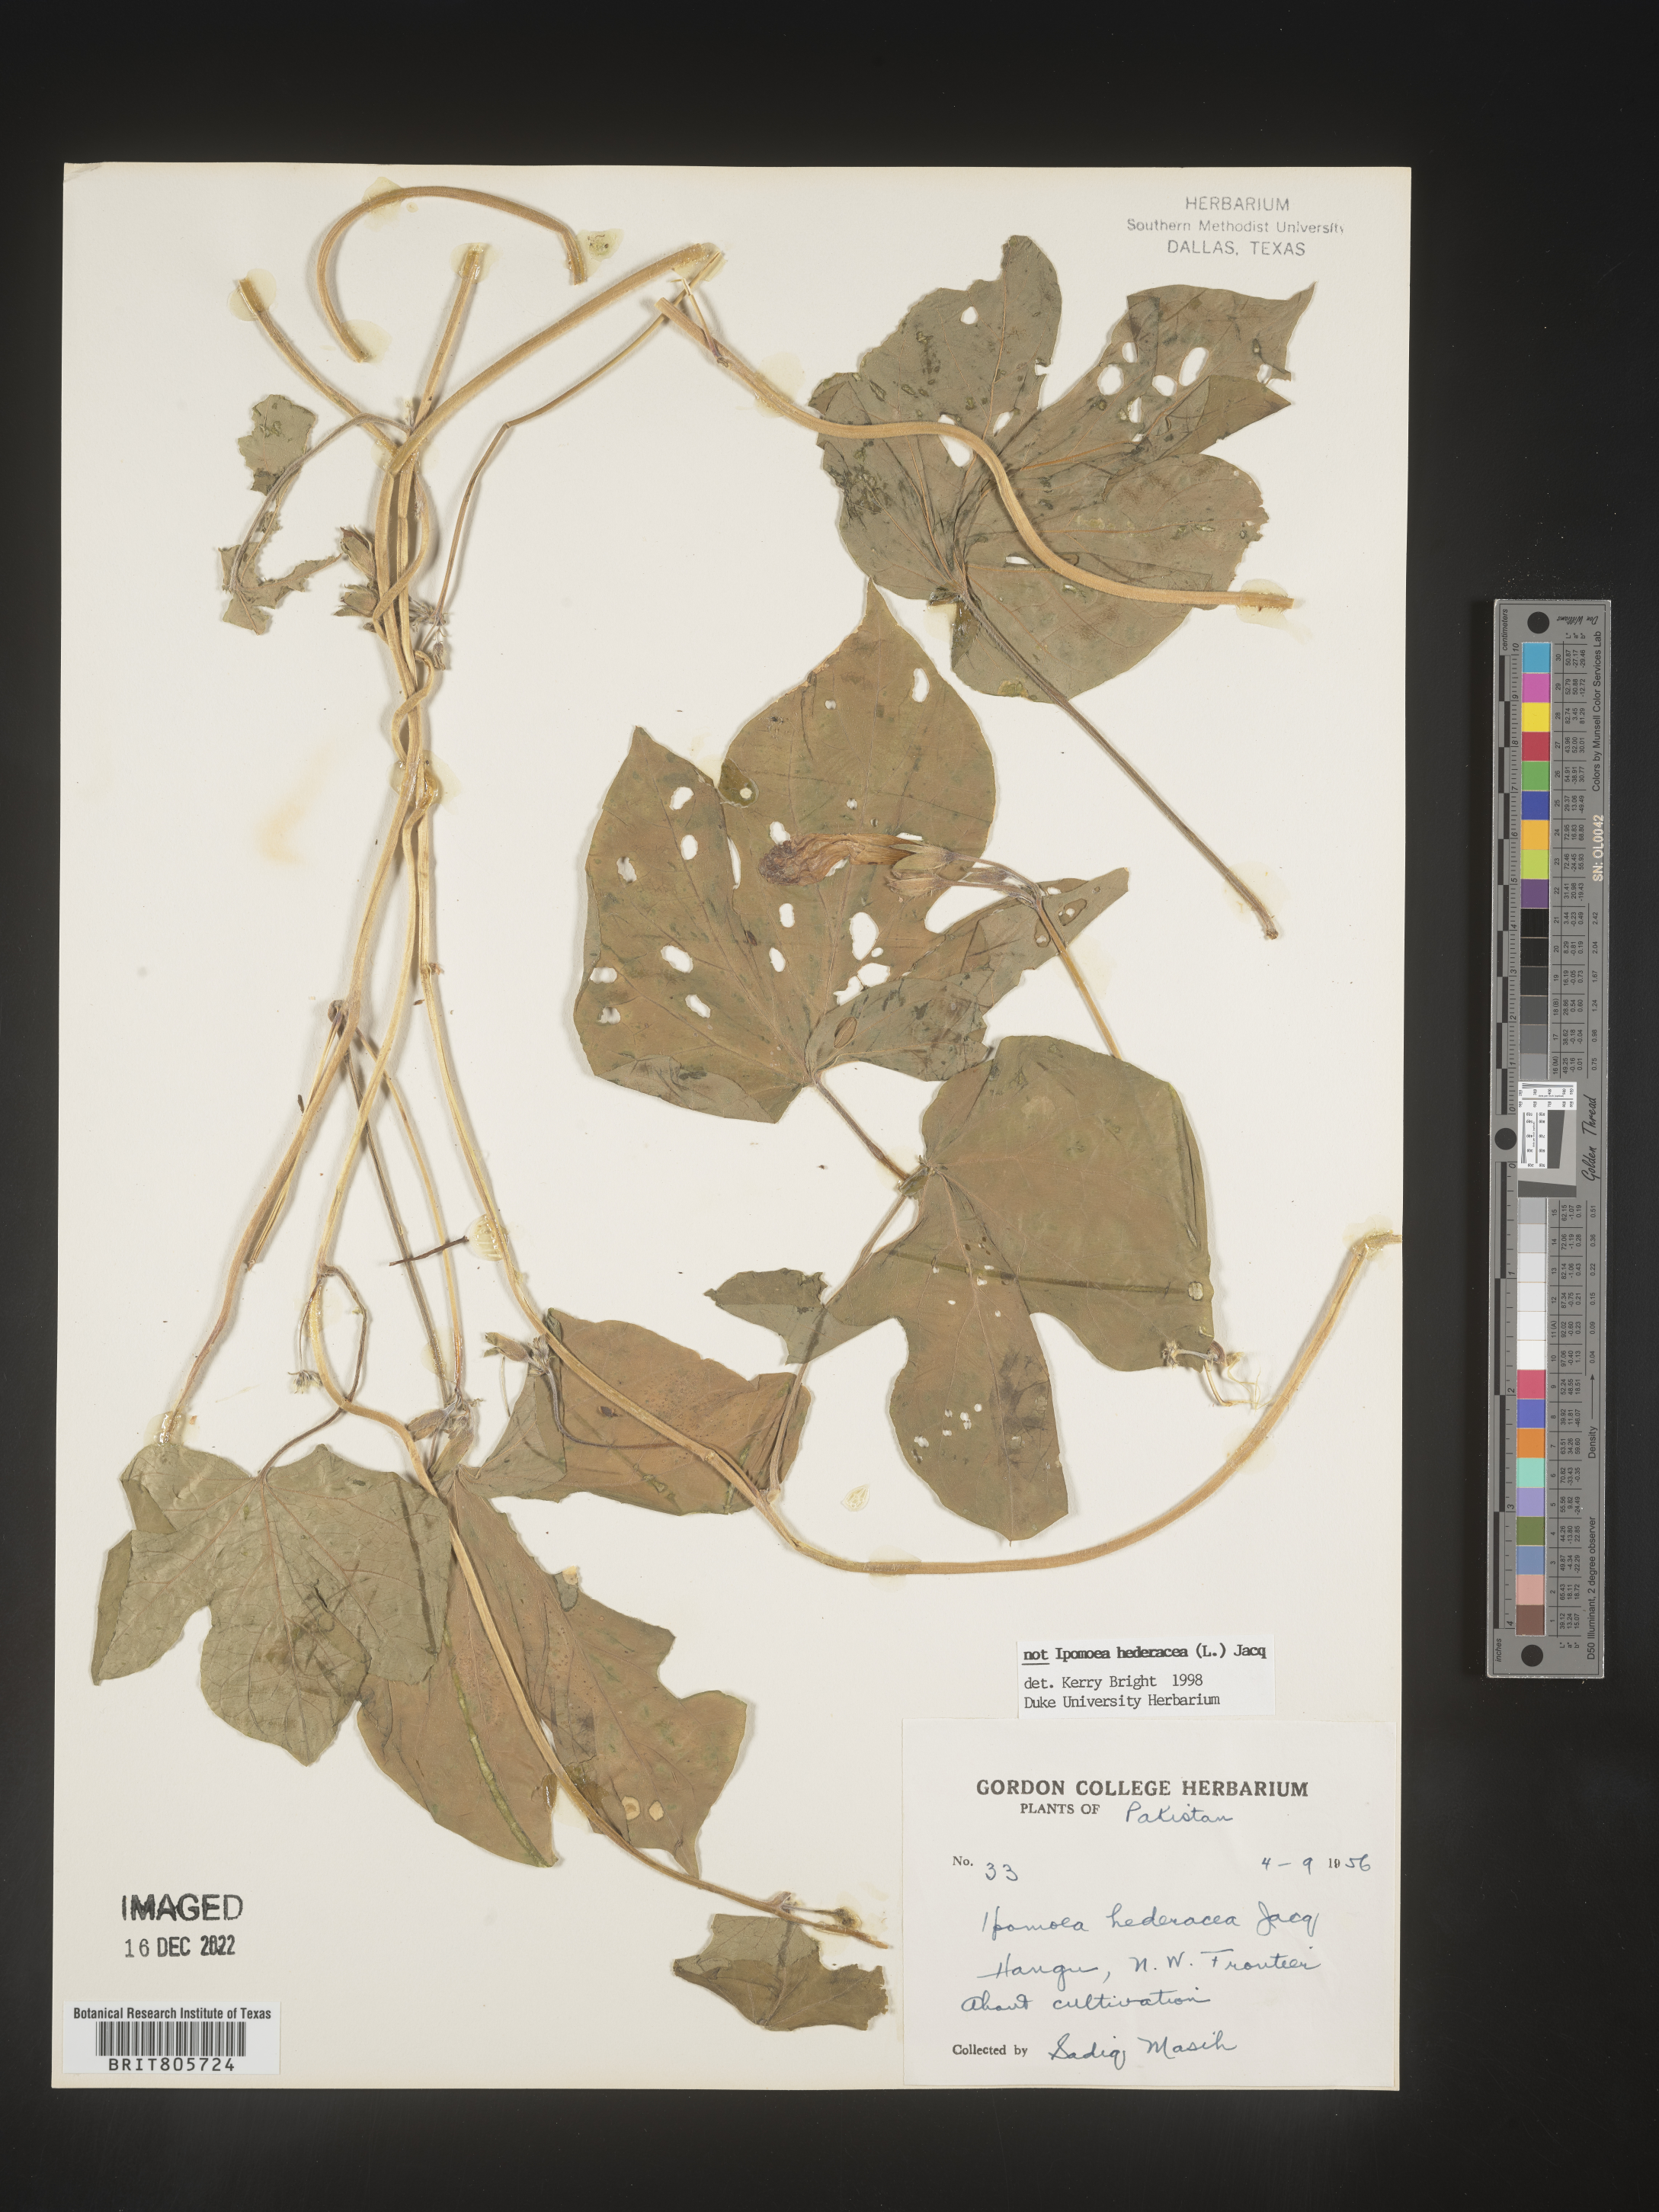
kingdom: Plantae
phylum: Tracheophyta
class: Magnoliopsida
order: Solanales
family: Convolvulaceae
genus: Ipomoea
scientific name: Ipomoea
